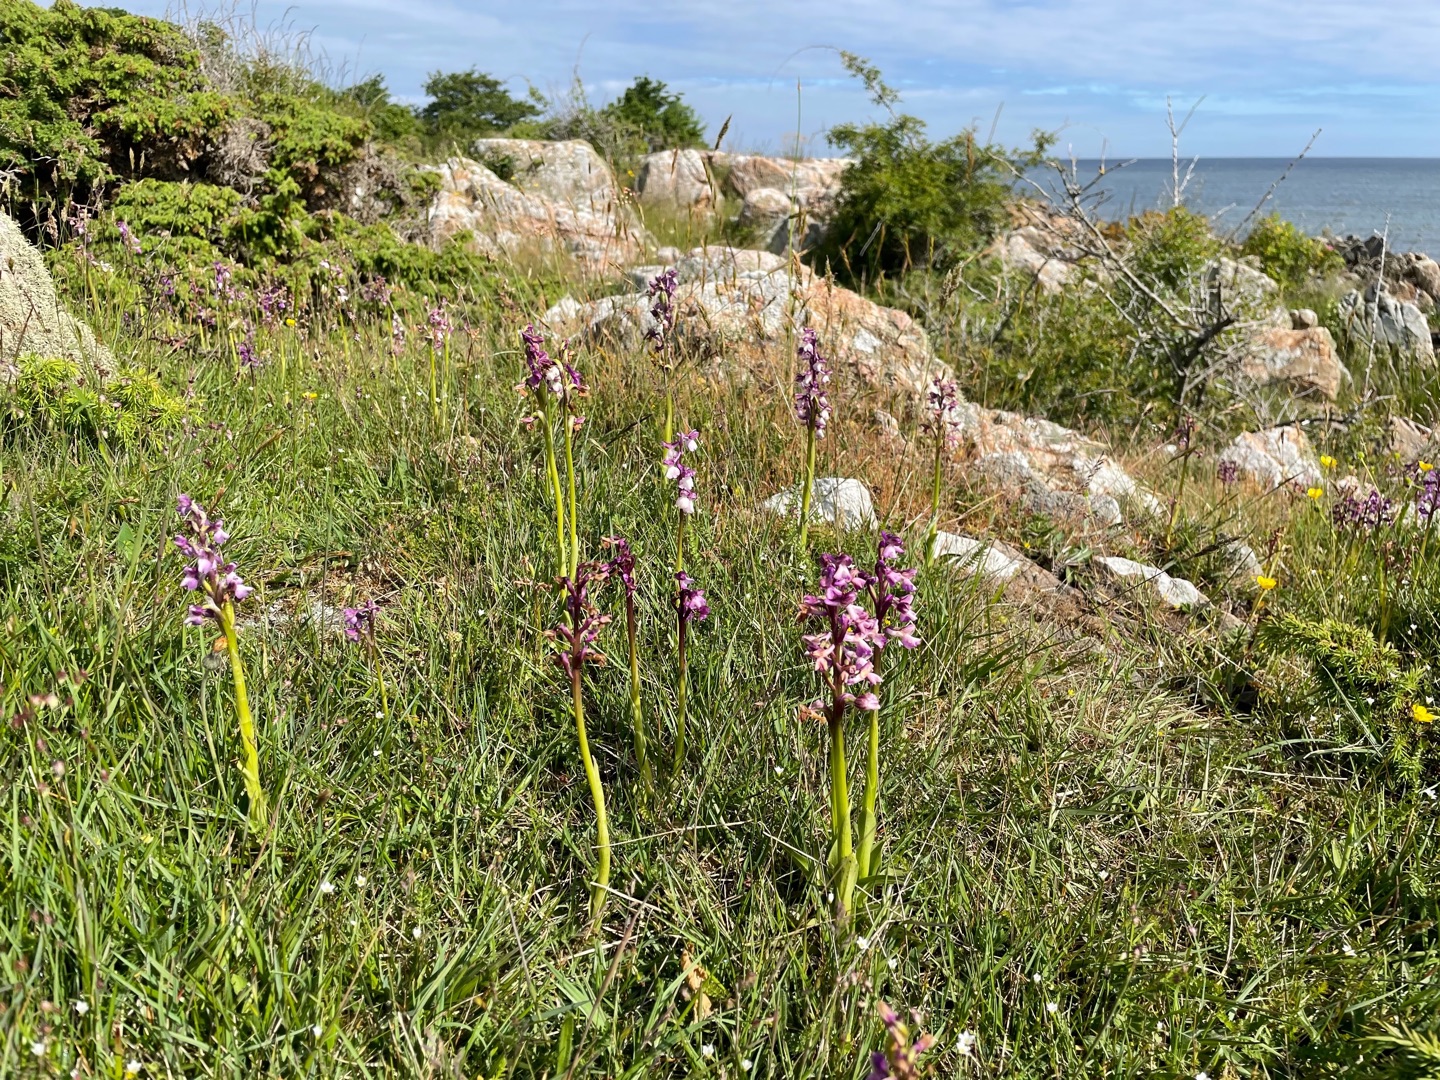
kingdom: Plantae
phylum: Tracheophyta
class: Liliopsida
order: Asparagales
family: Orchidaceae
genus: Anacamptis
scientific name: Anacamptis morio
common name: Salepgøgeurt
